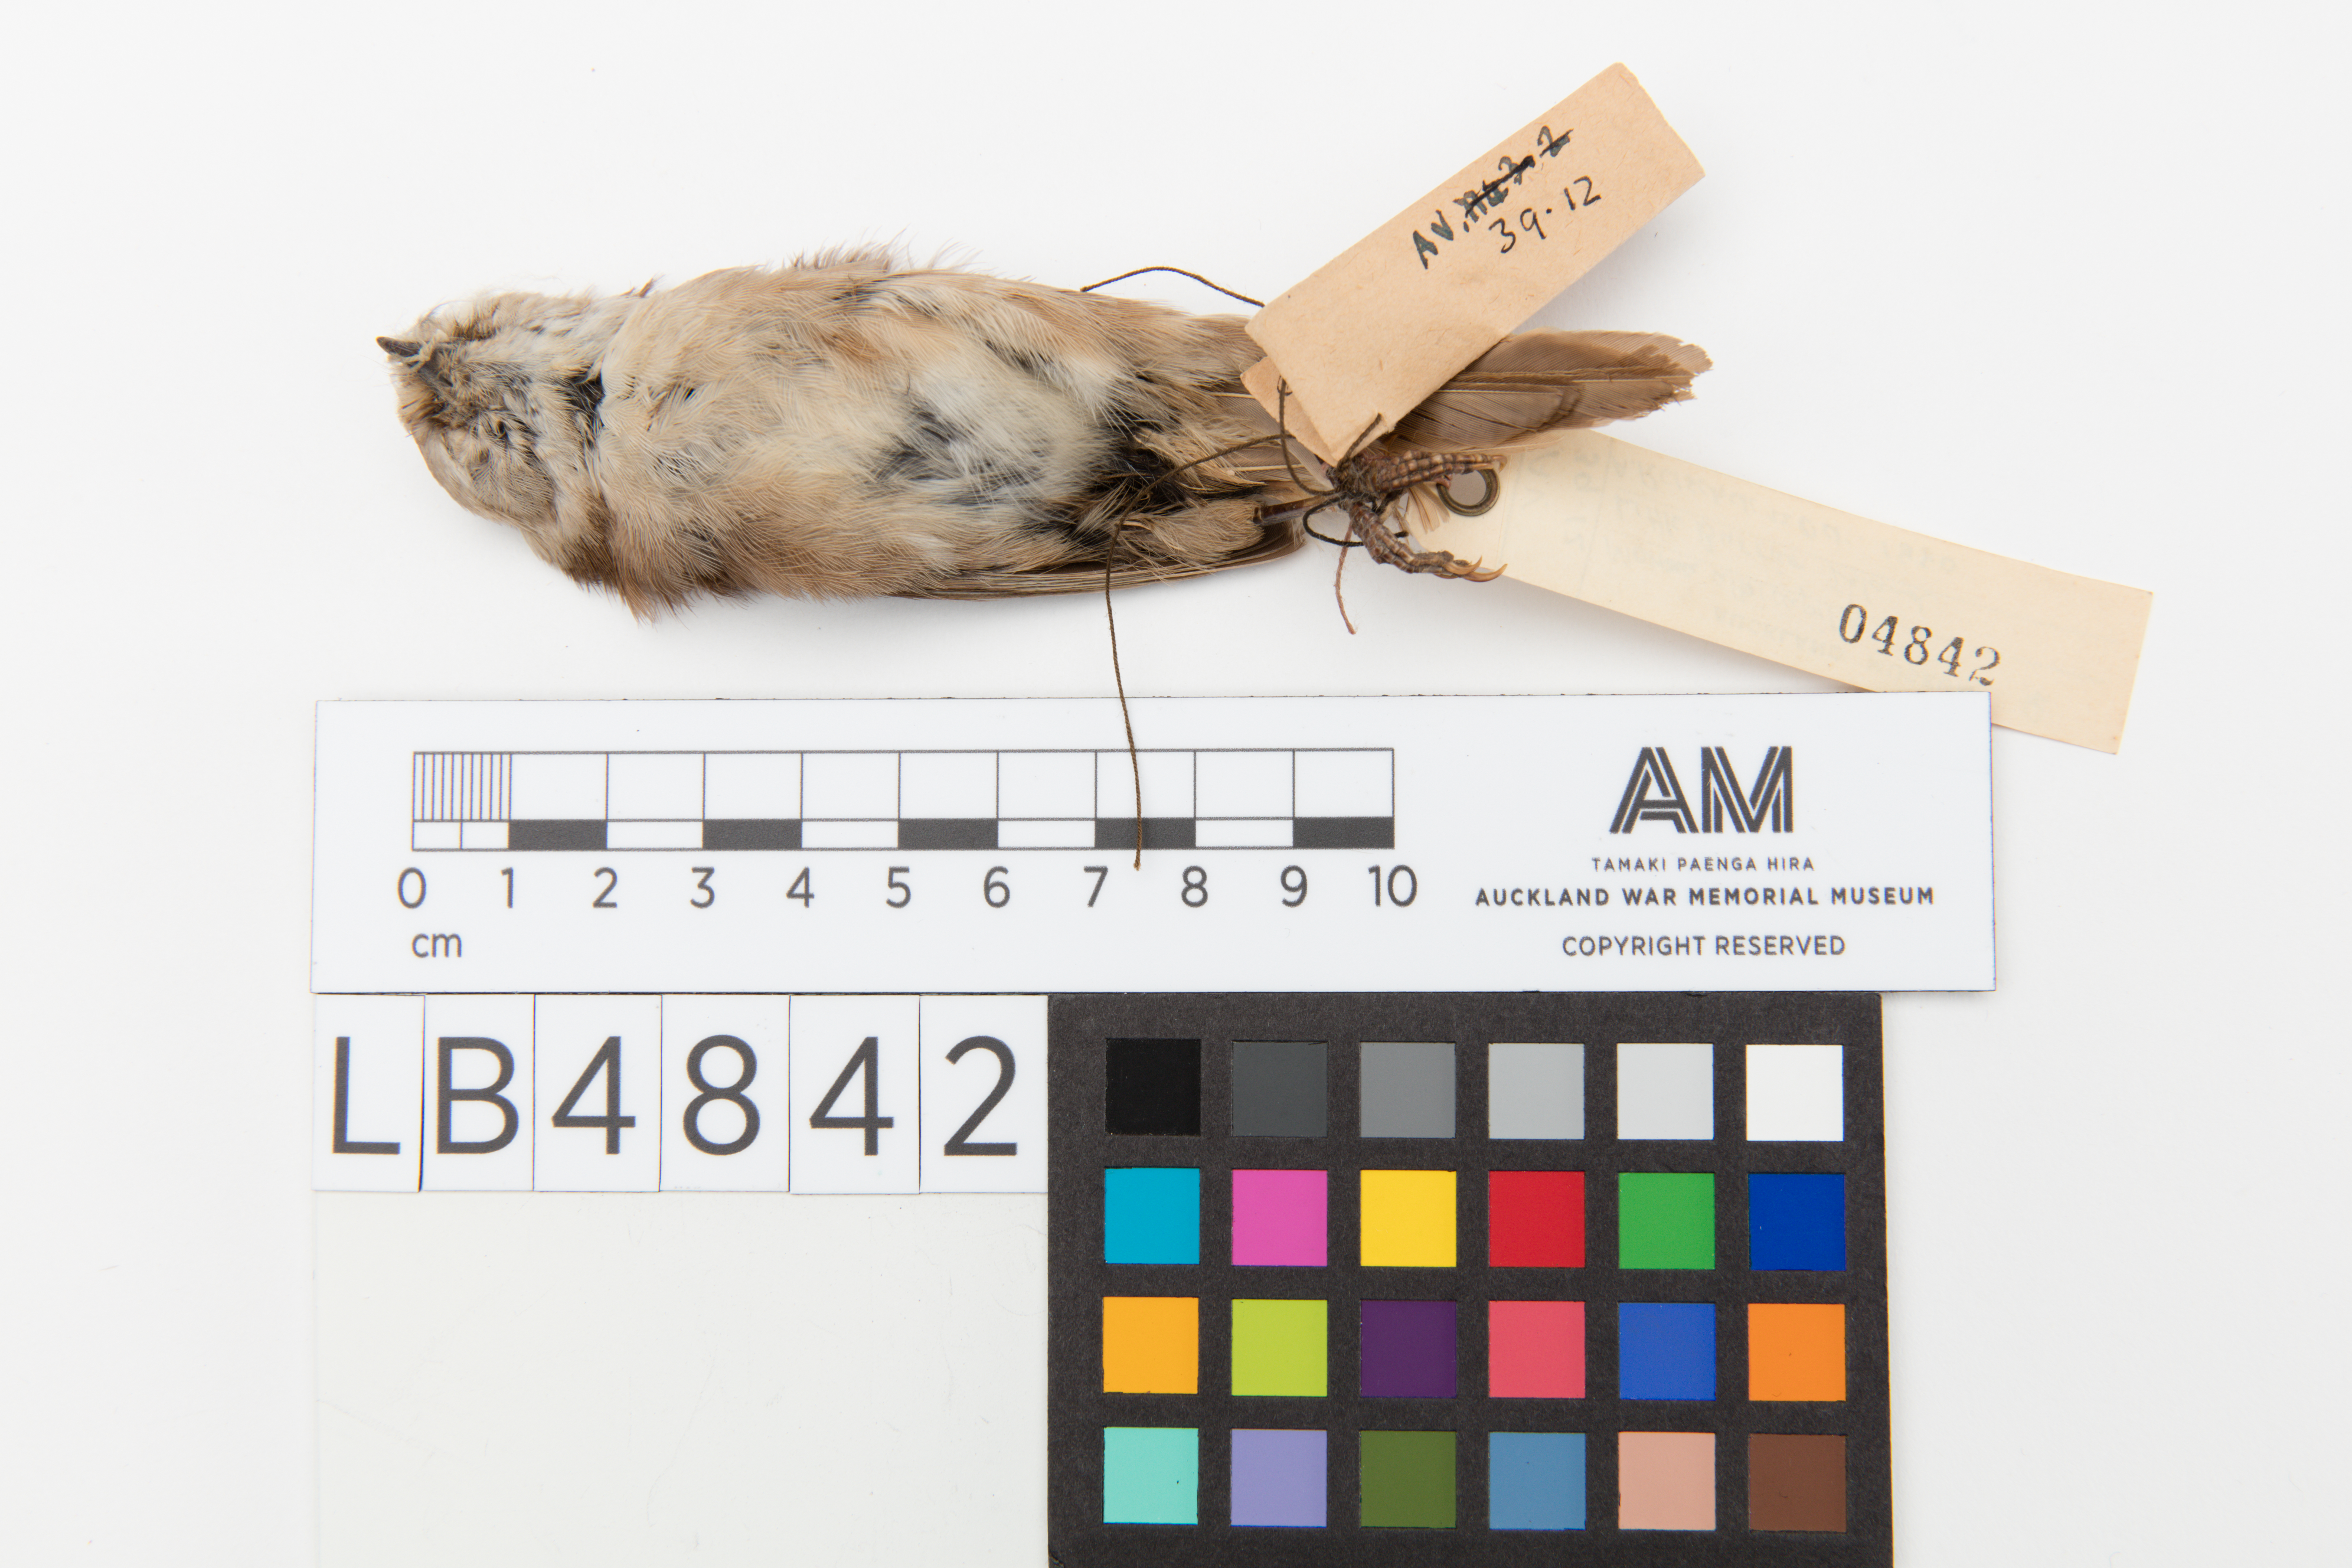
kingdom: Animalia
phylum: Chordata
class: Aves
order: Passeriformes
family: Acanthizidae
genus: Mohoua
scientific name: Mohoua albicilla
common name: Whitehead
